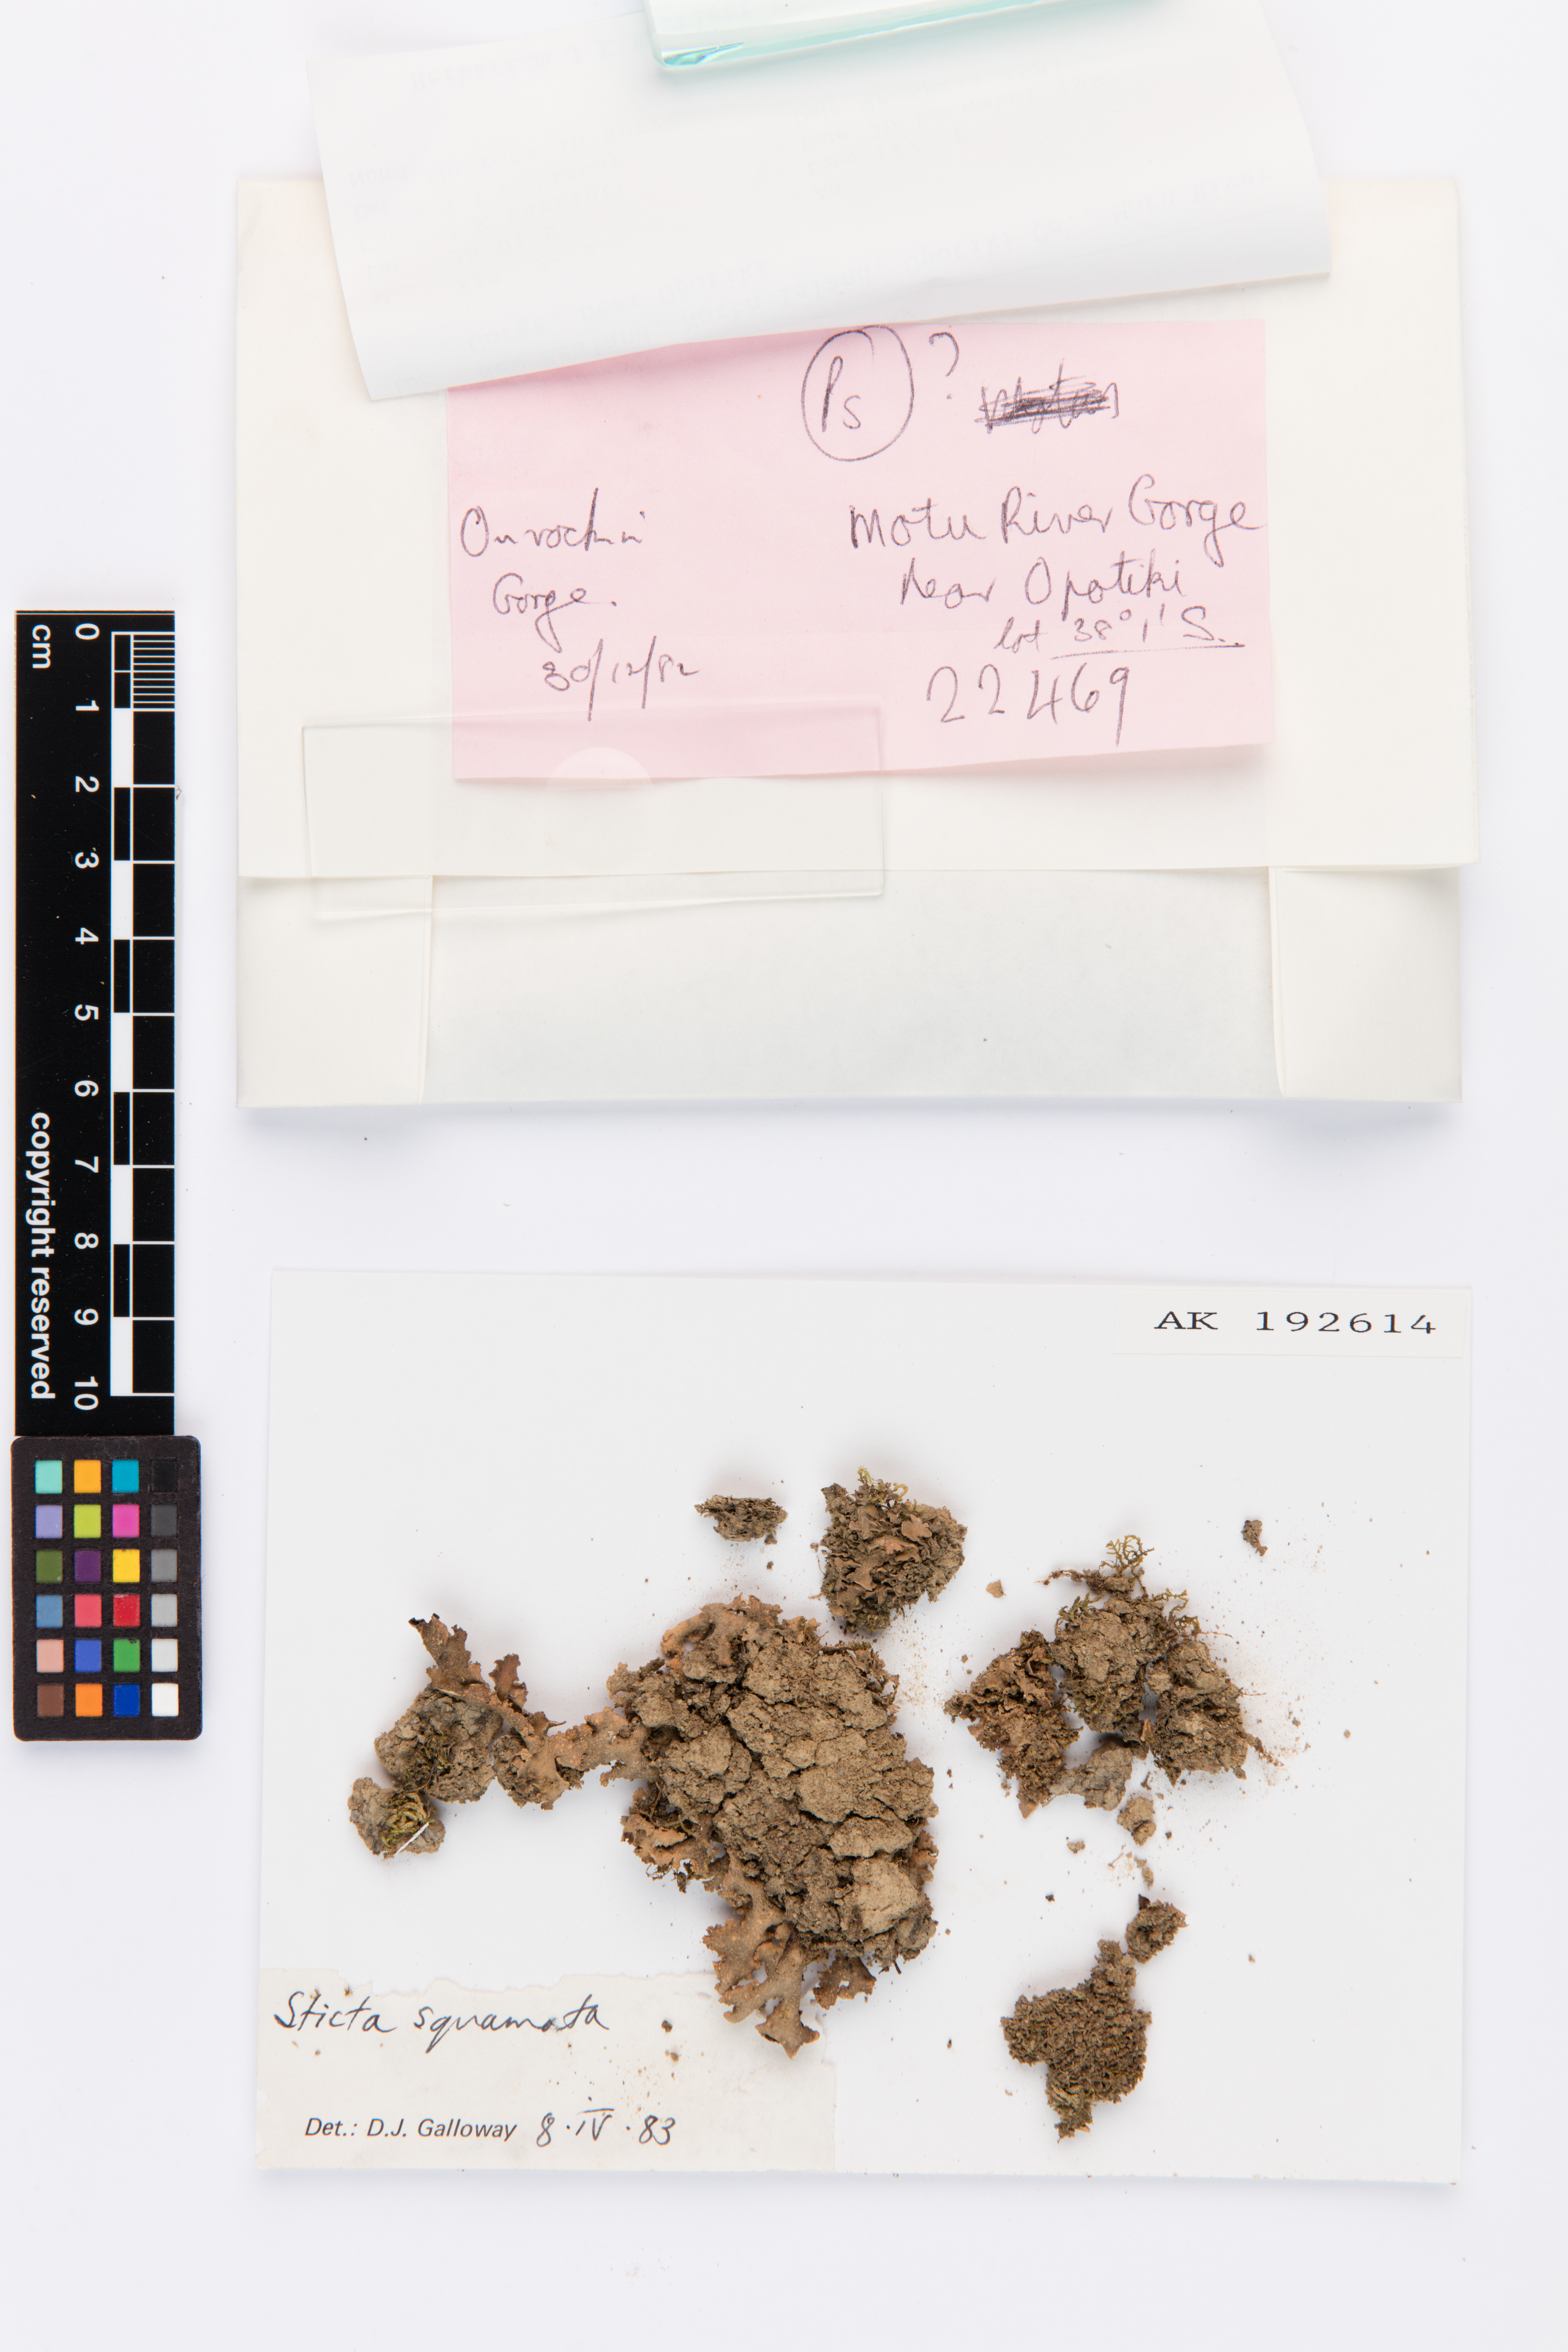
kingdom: Fungi
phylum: Ascomycota
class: Lecanoromycetes
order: Peltigerales
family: Lobariaceae
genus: Sticta
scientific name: Sticta squamata
